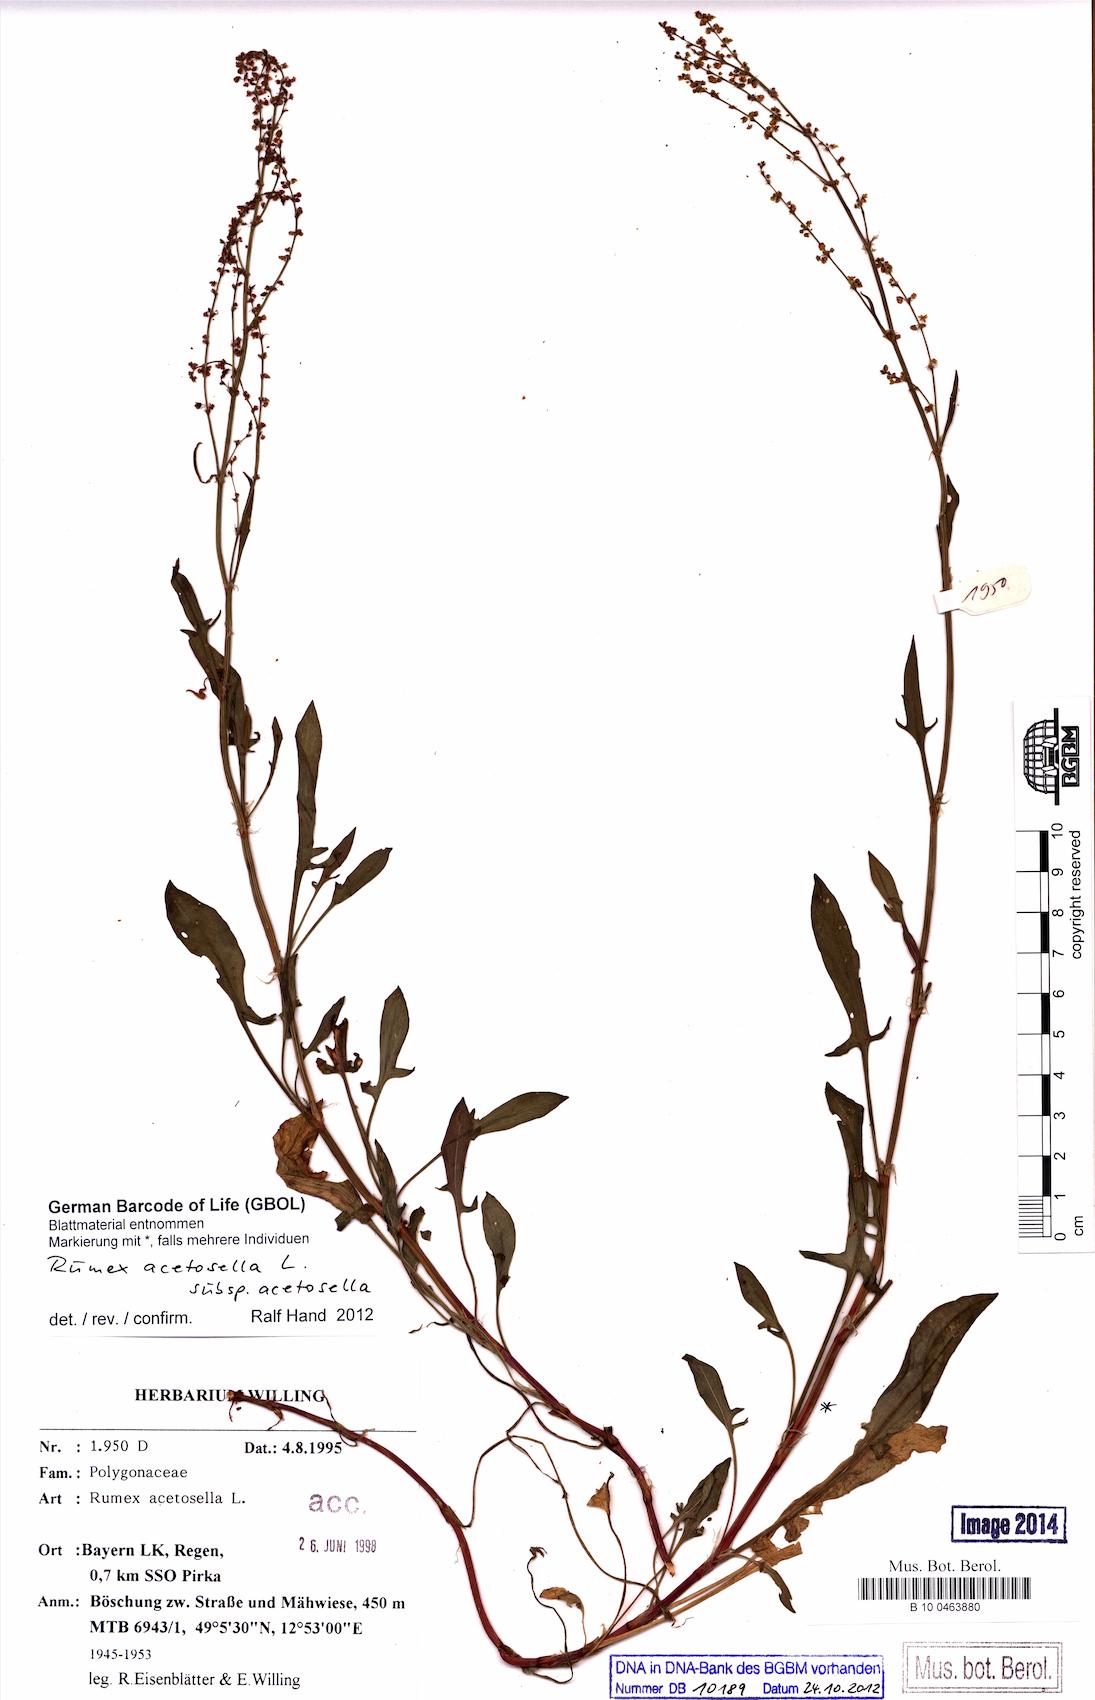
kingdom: Plantae
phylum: Tracheophyta
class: Magnoliopsida
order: Caryophyllales
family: Polygonaceae
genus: Rumex
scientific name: Rumex acetosella
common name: Common sheep sorrel
